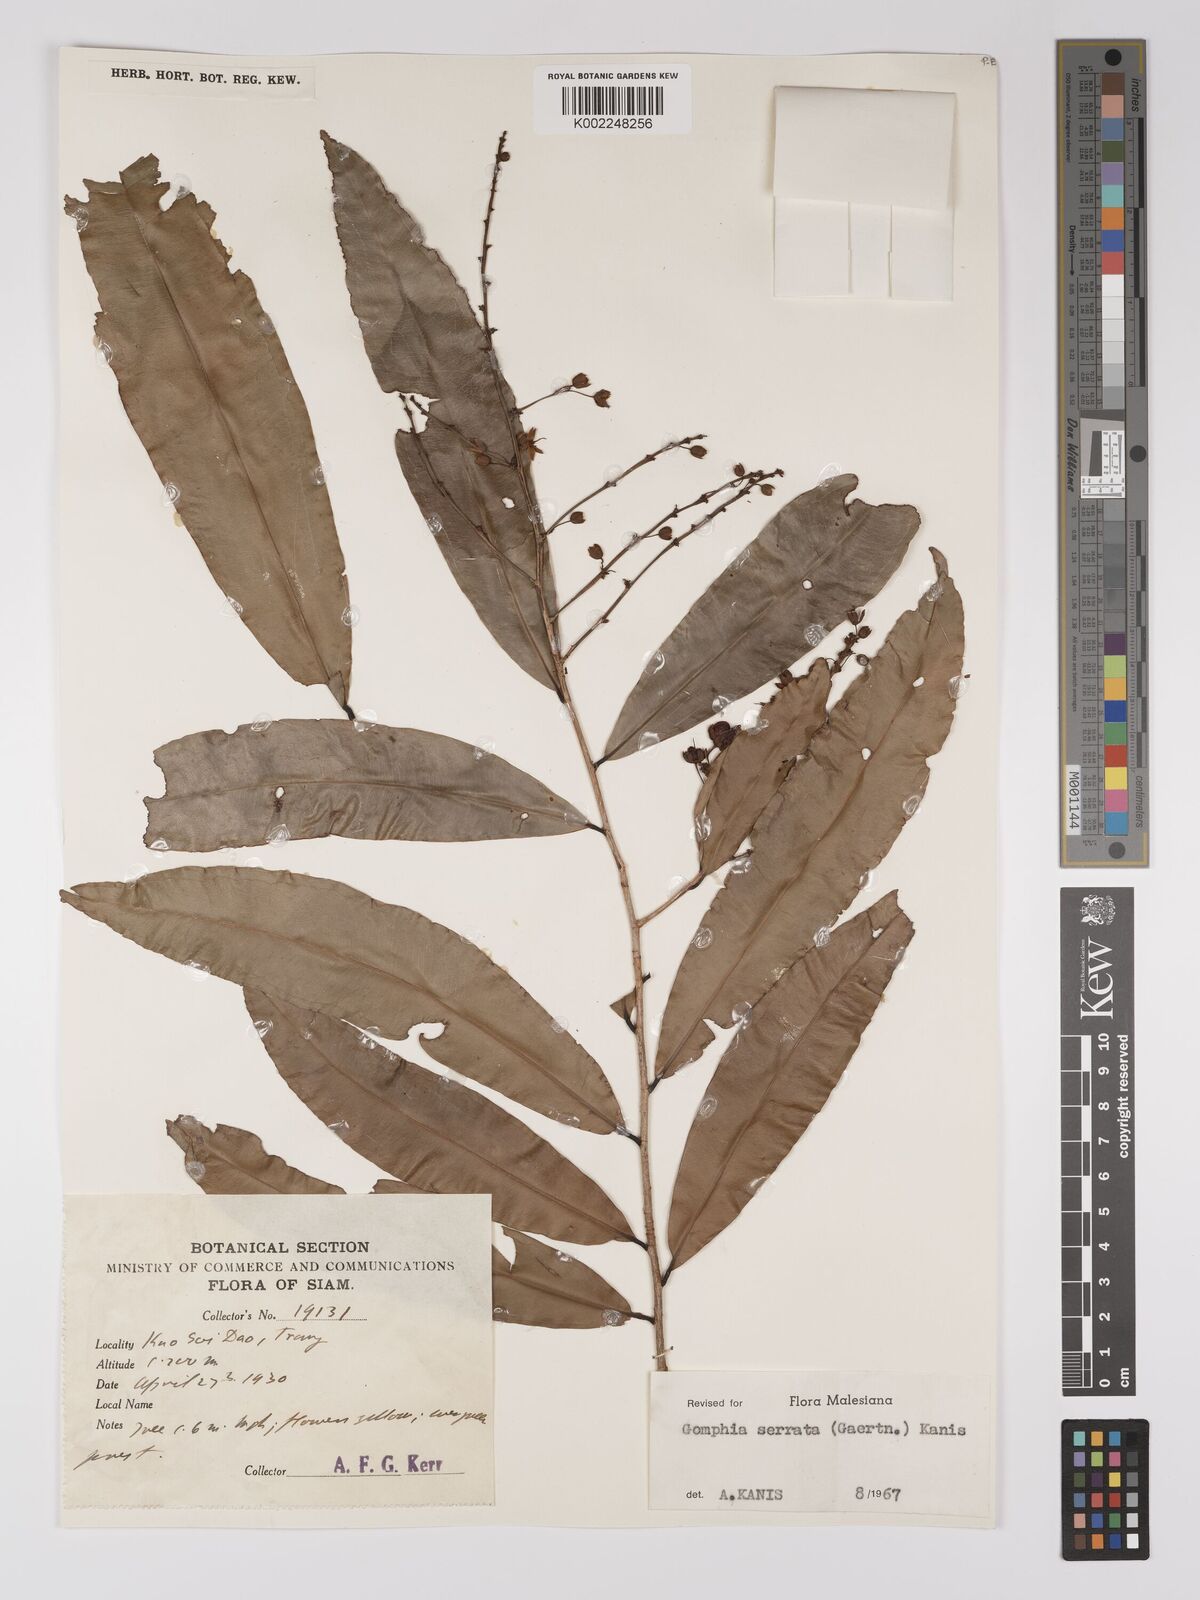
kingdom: Plantae
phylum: Tracheophyta
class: Magnoliopsida
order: Malpighiales
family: Ochnaceae
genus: Gomphia
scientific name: Gomphia serrata
